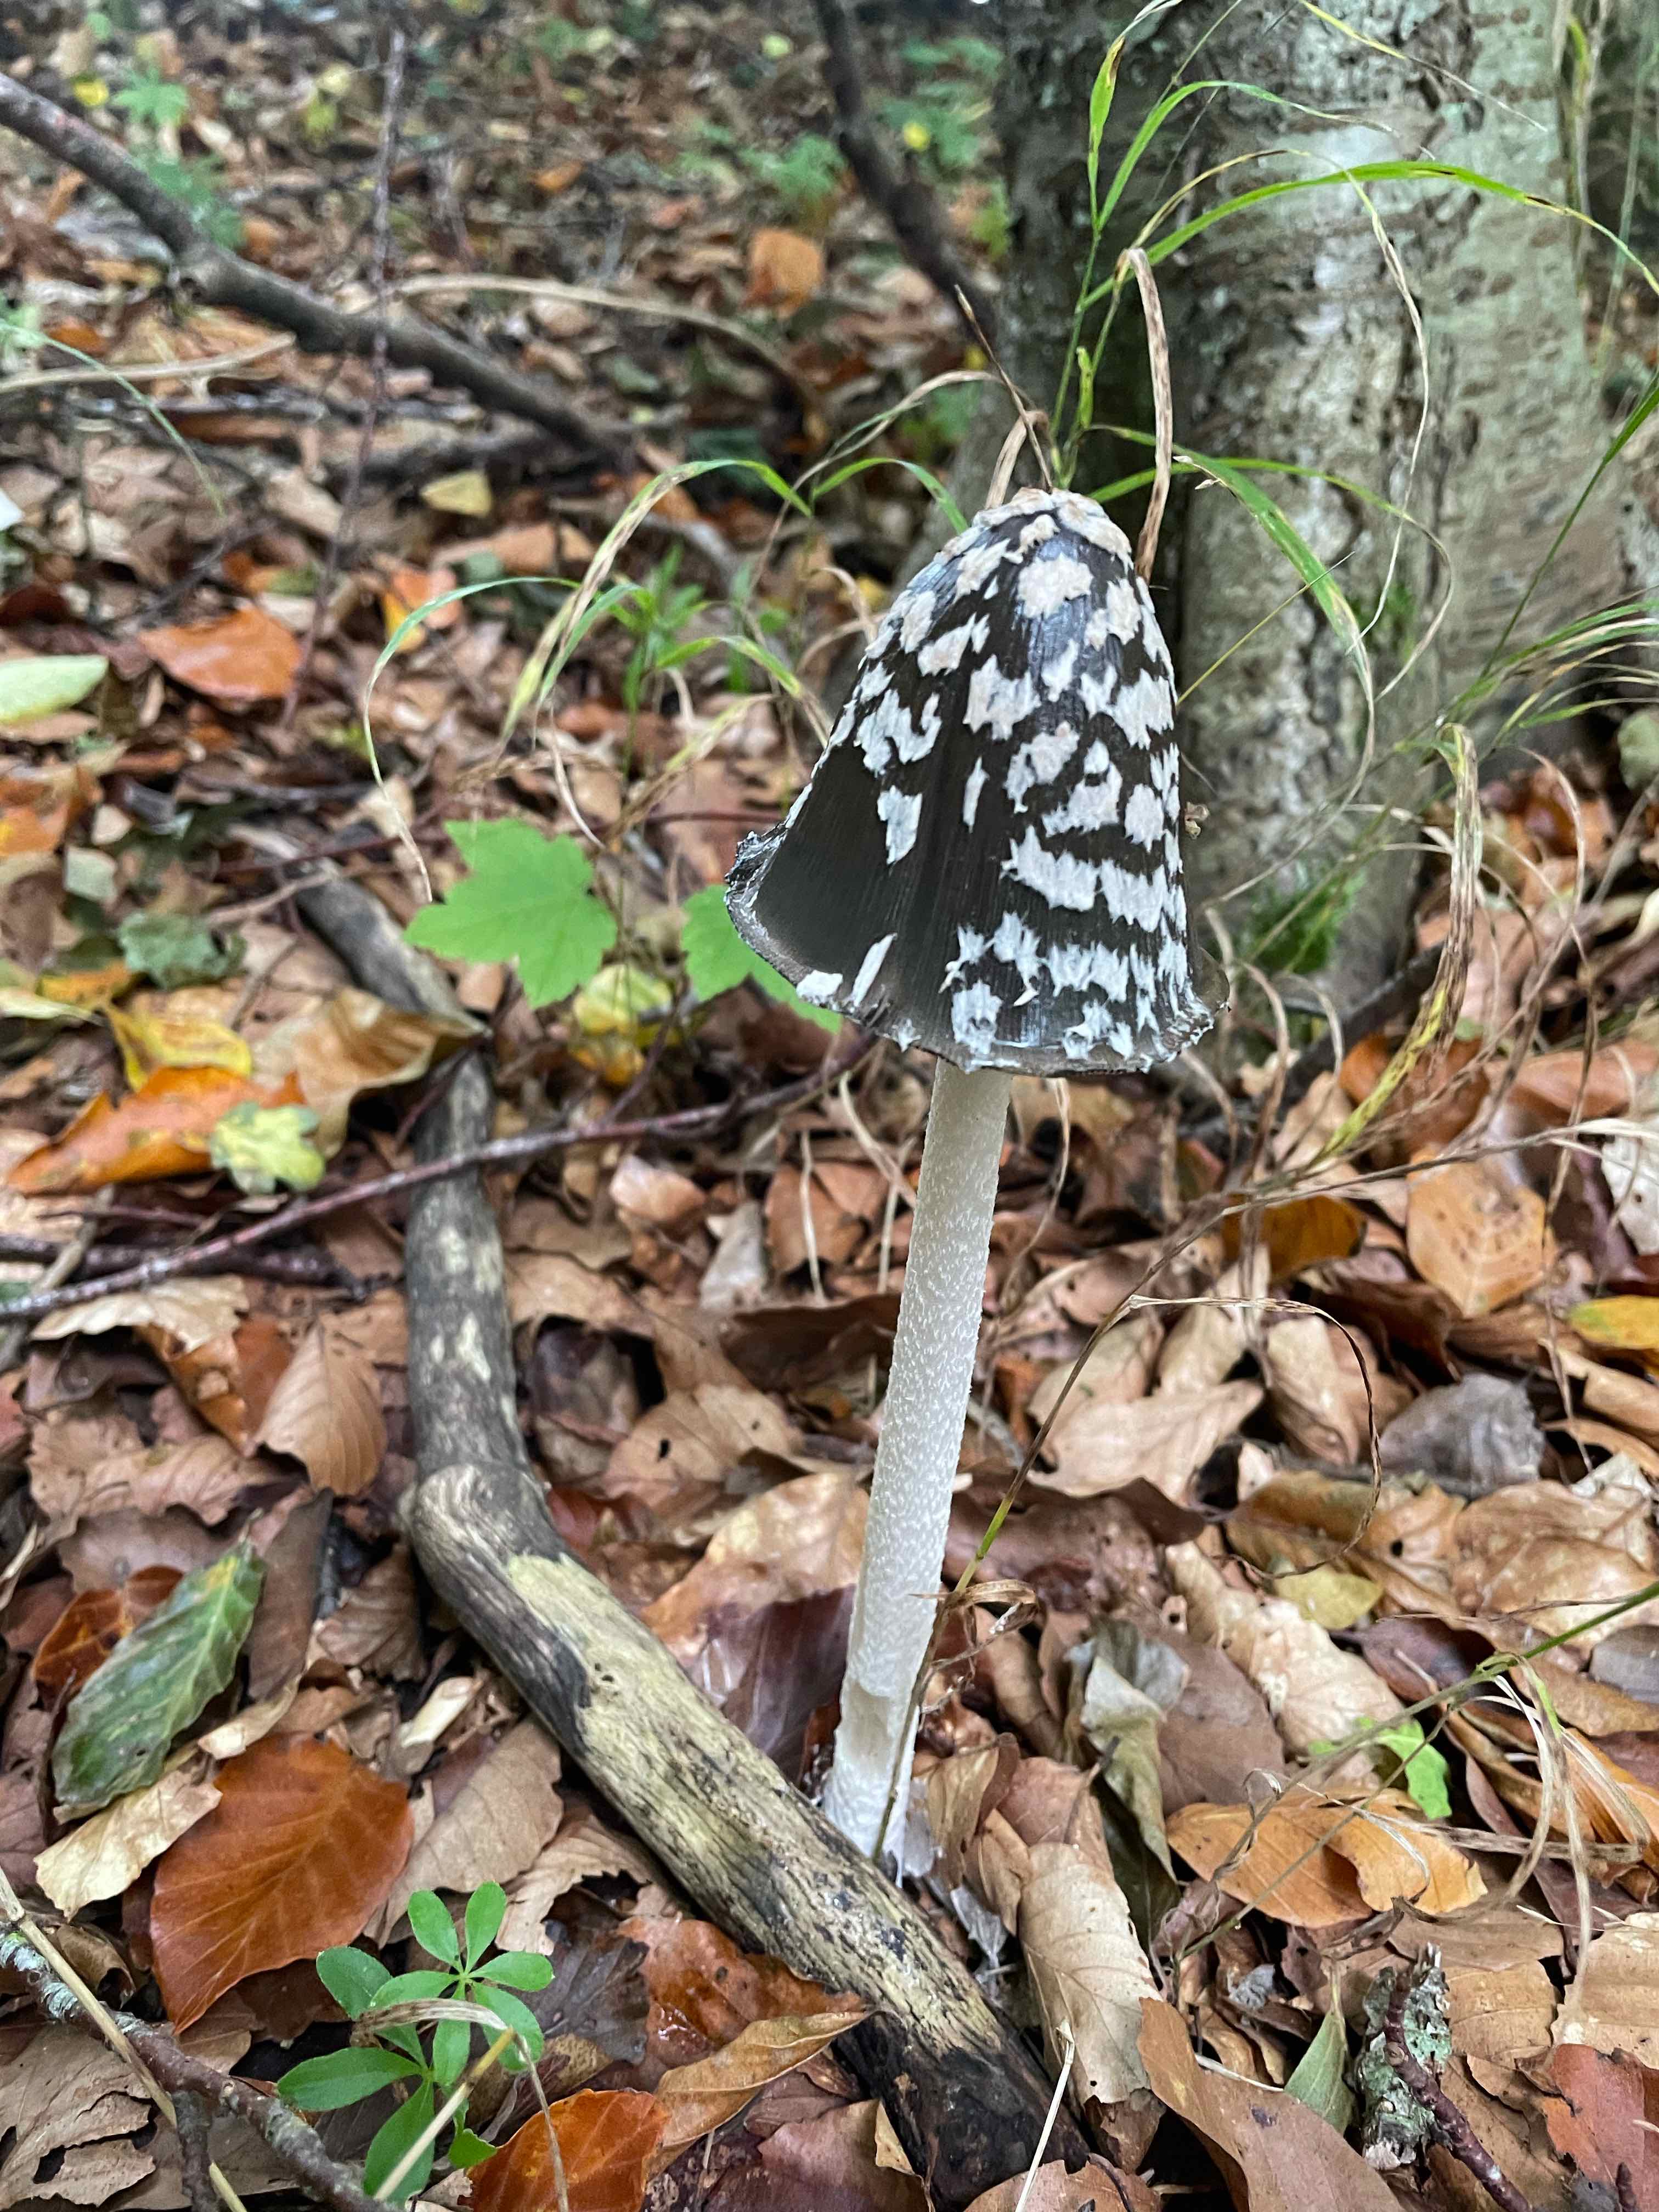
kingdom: Fungi
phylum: Basidiomycota
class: Agaricomycetes
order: Agaricales
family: Psathyrellaceae
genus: Coprinopsis
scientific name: Coprinopsis picacea
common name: skade-blækhat
